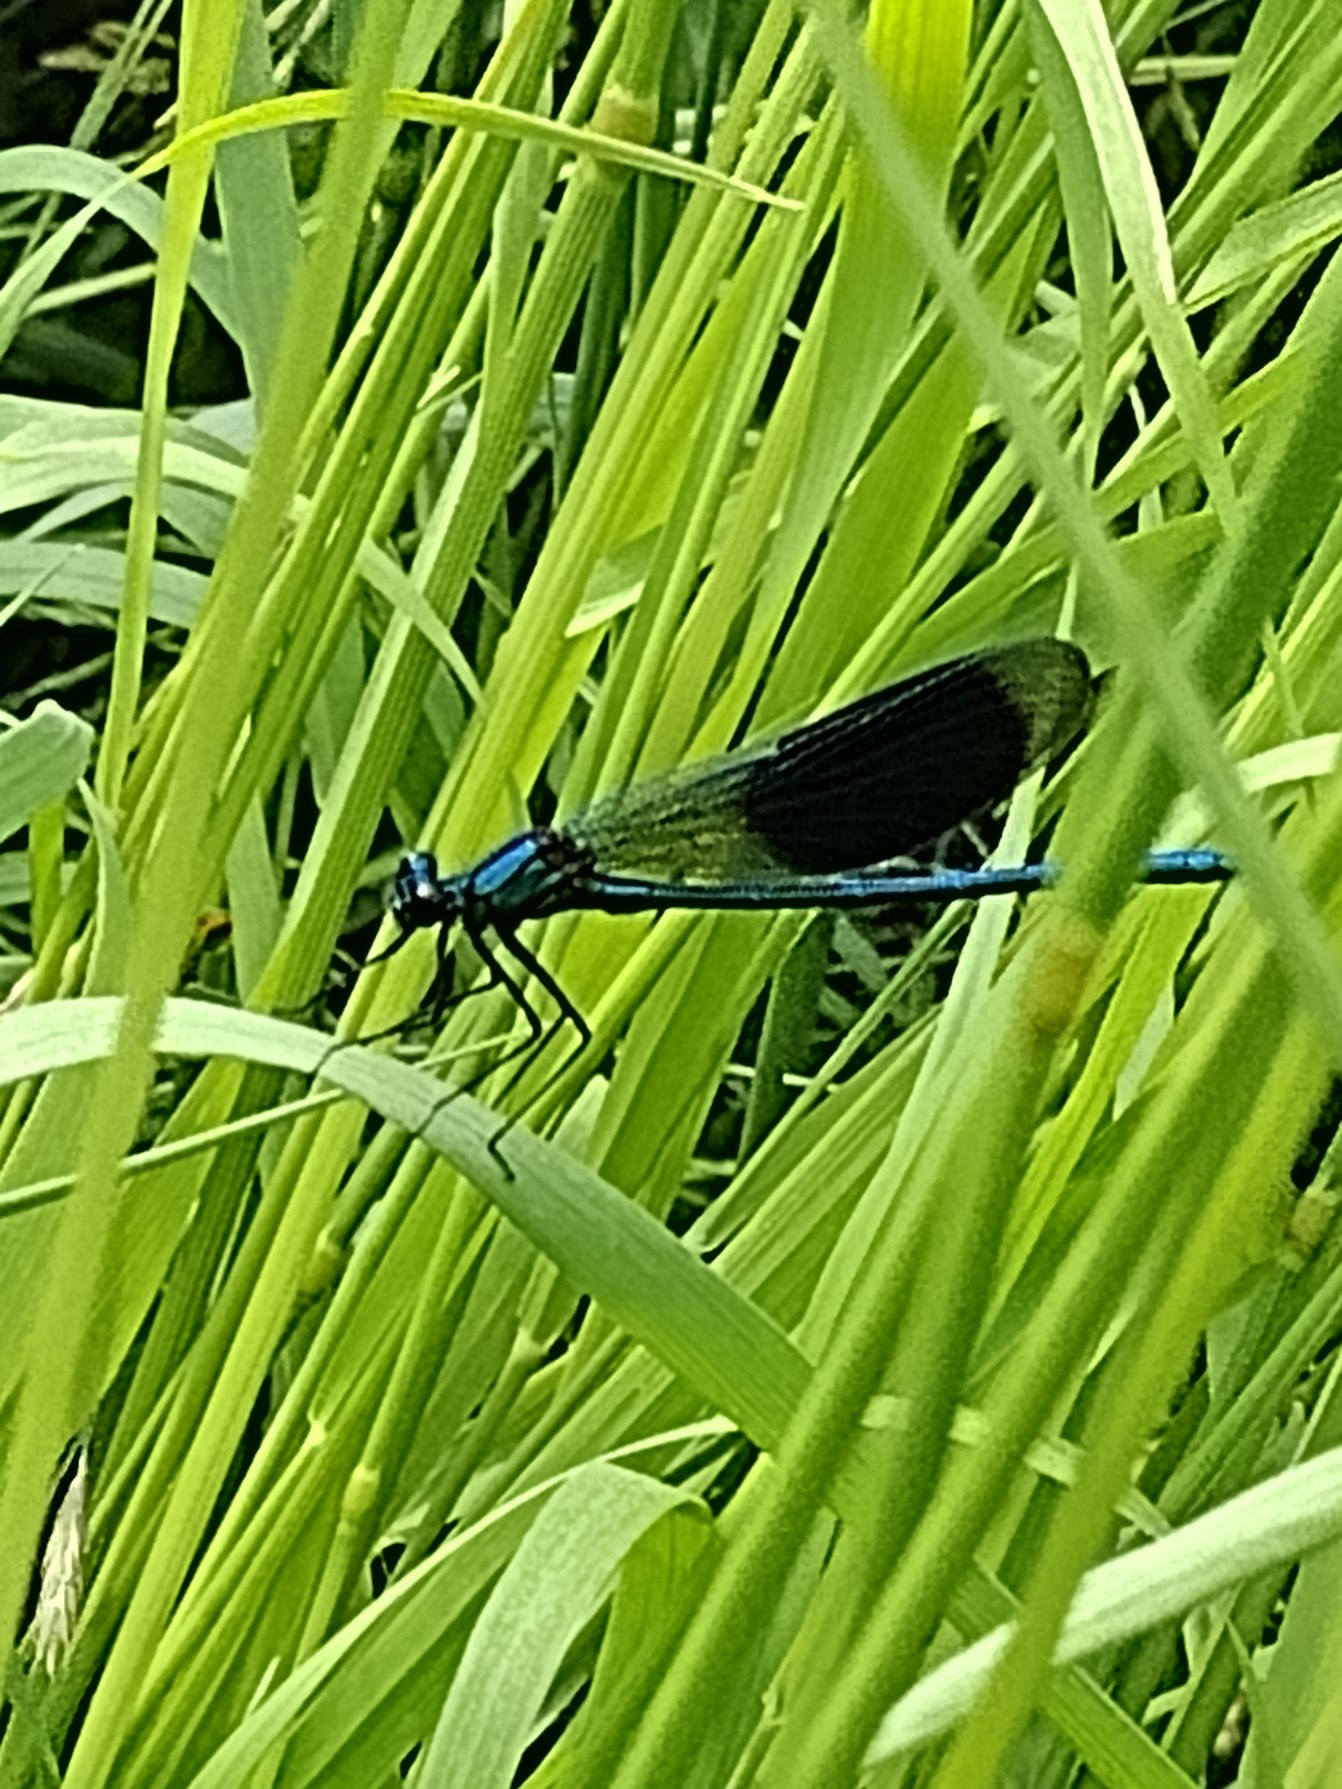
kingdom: Animalia
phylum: Arthropoda
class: Insecta
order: Odonata
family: Calopterygidae
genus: Calopteryx
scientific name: Calopteryx splendens
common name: Blåbåndet pragtvandnymfe
